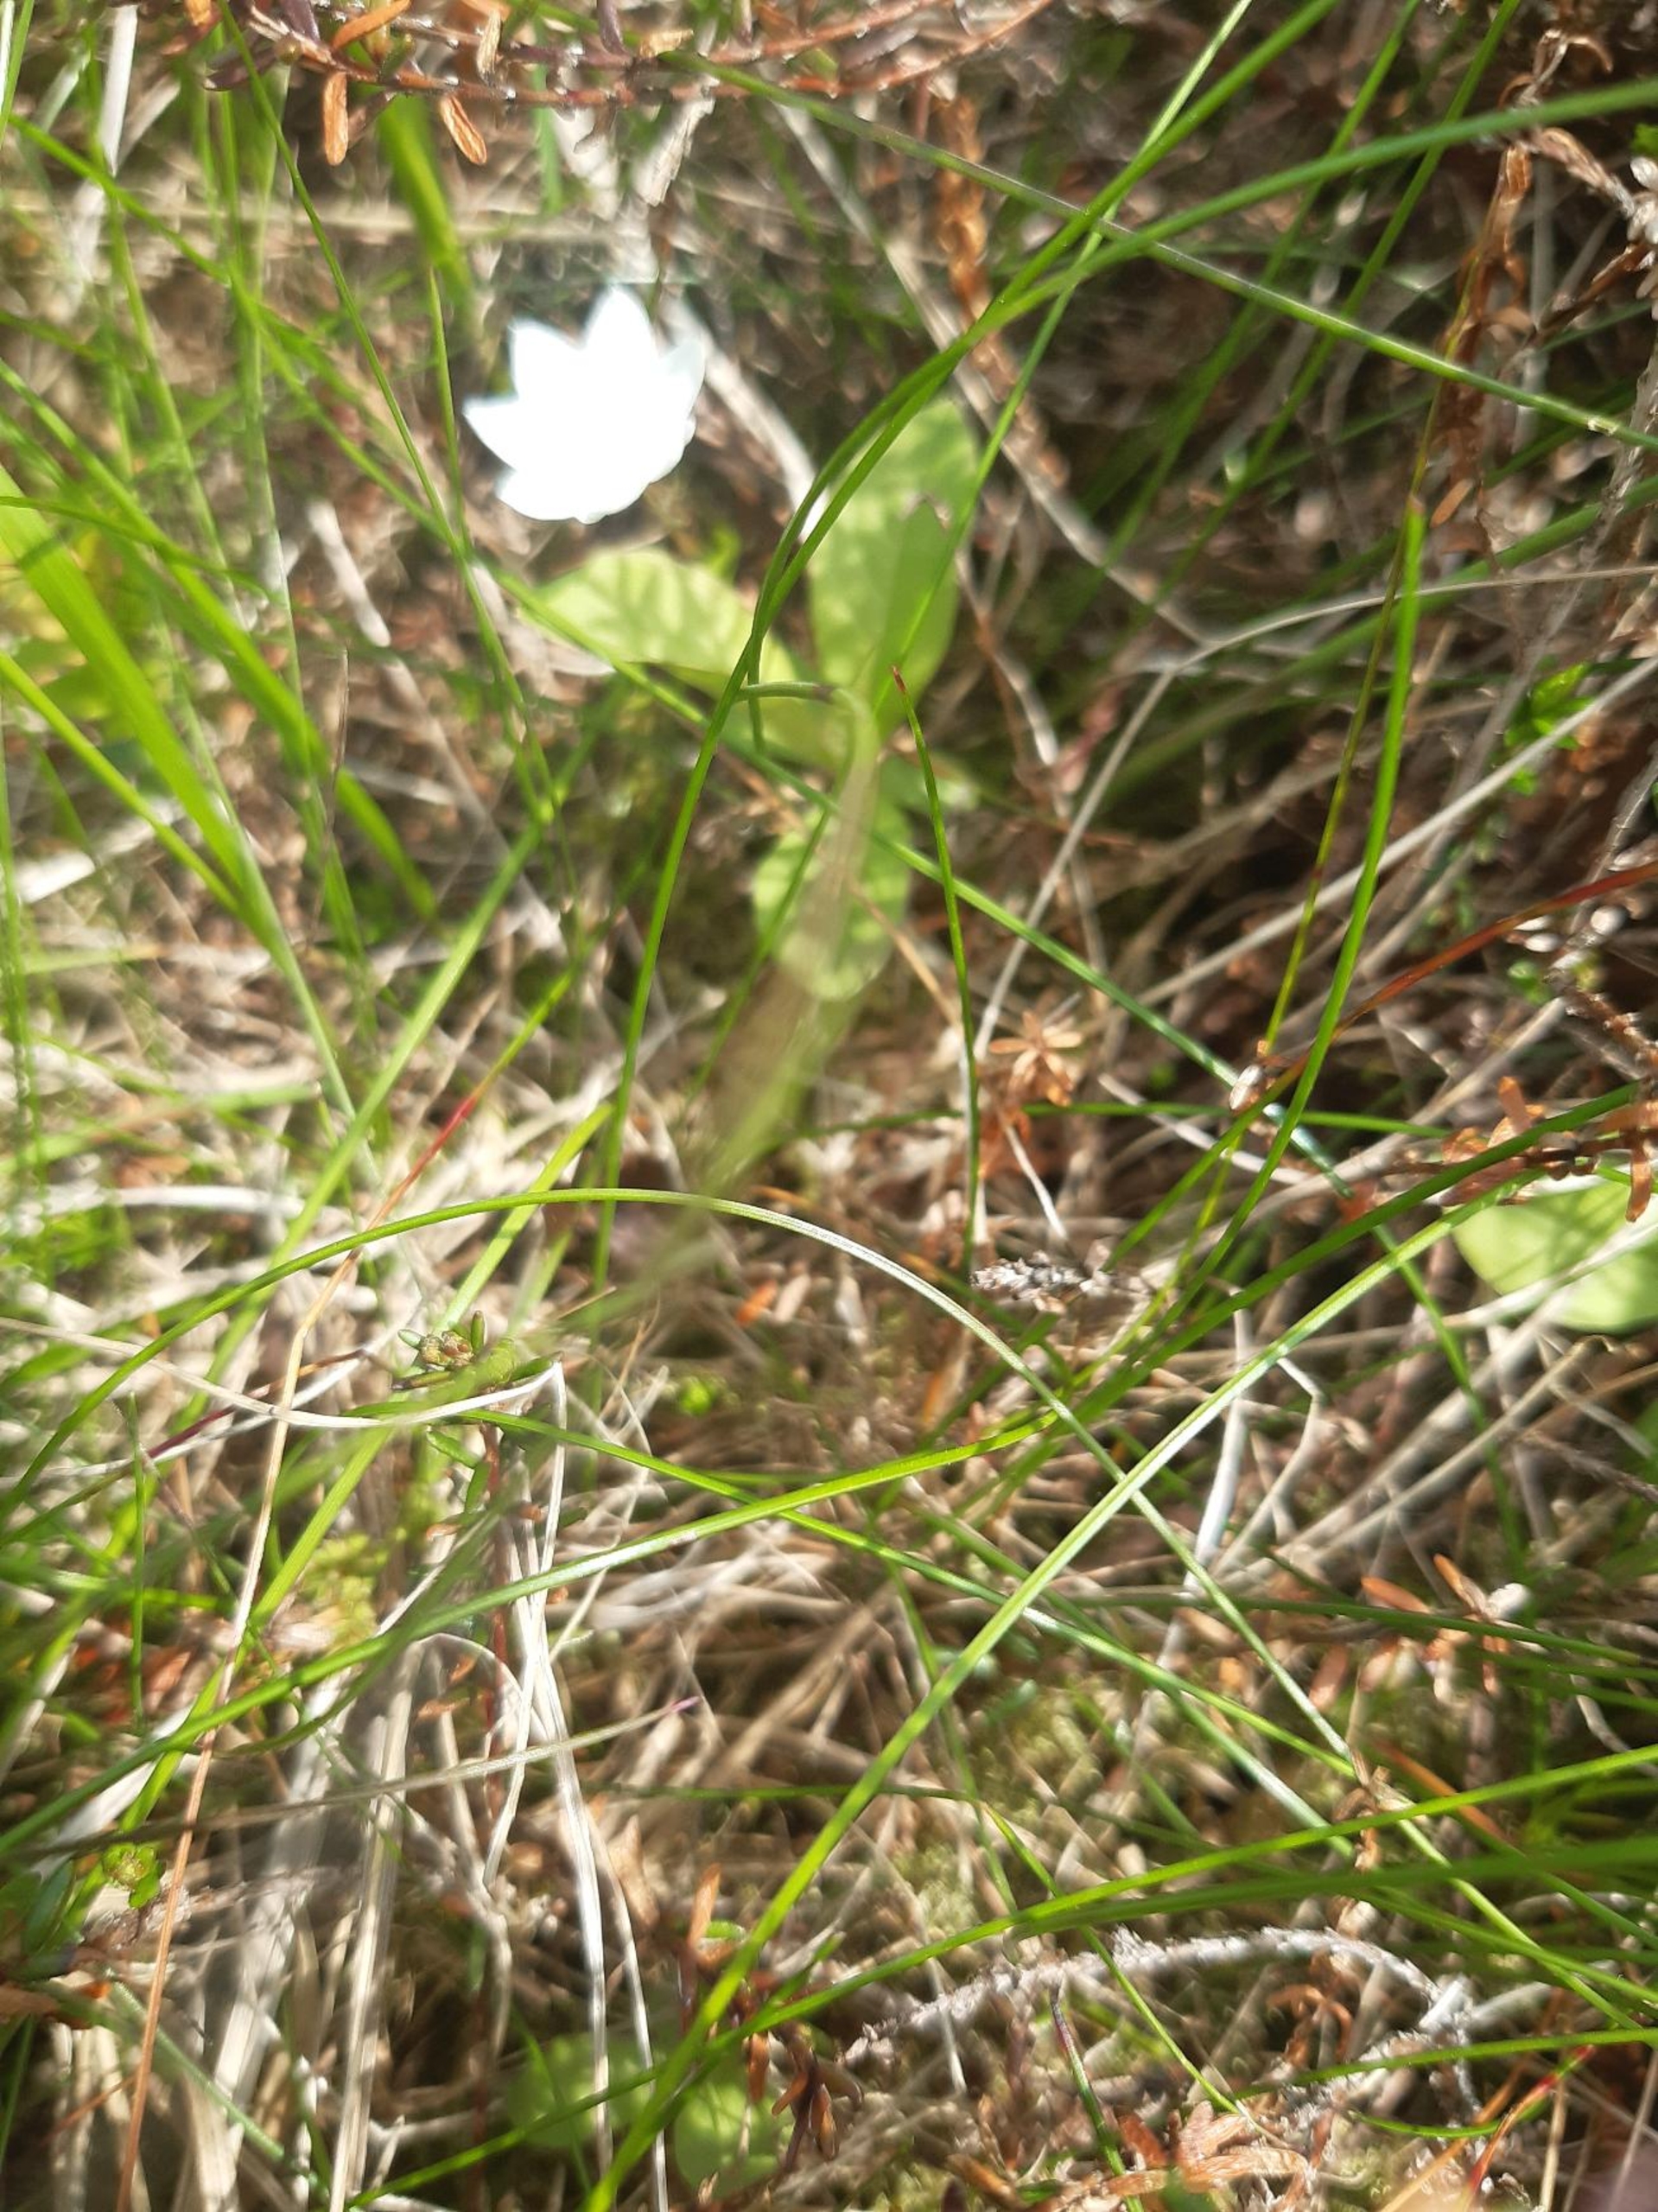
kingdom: Plantae
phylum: Tracheophyta
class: Magnoliopsida
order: Ericales
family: Primulaceae
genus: Lysimachia
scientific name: Lysimachia europaea
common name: Skovstjerne
